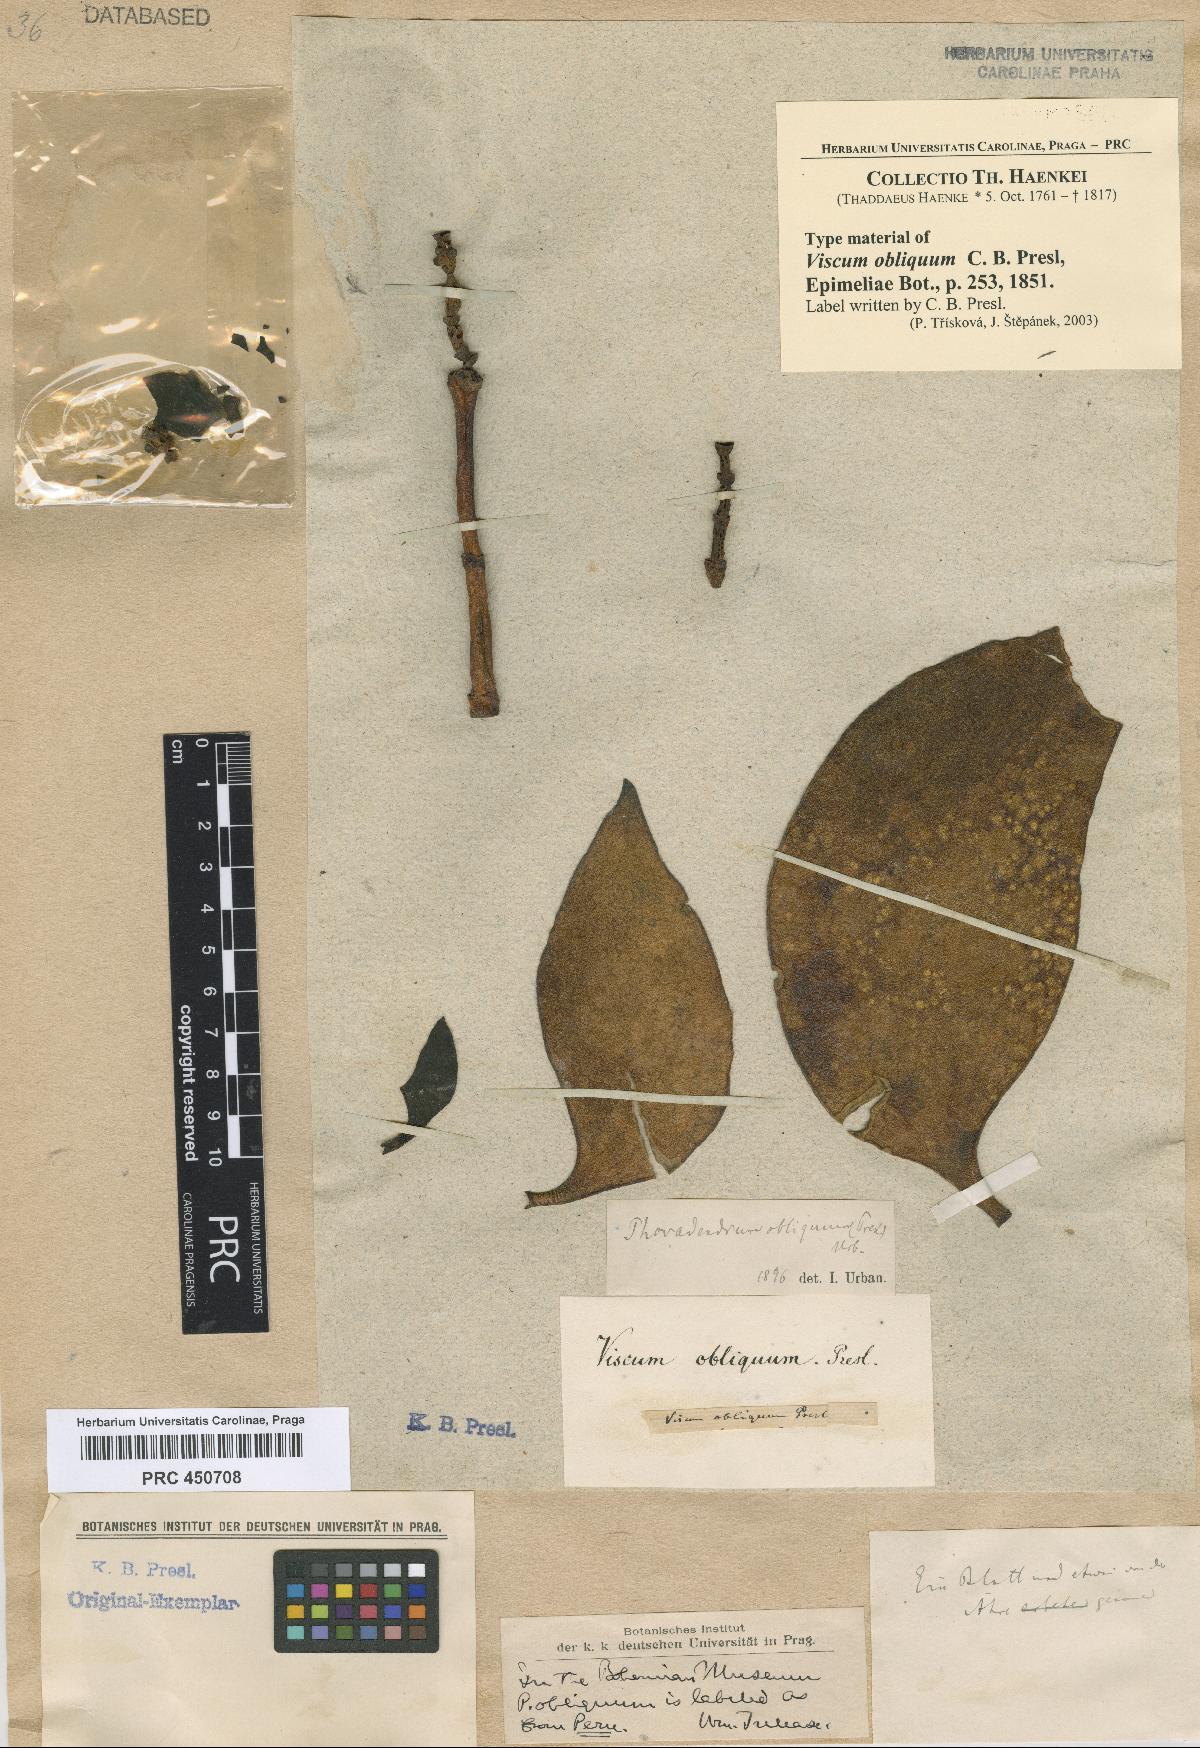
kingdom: Plantae
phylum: Tracheophyta
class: Magnoliopsida
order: Santalales
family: Viscaceae
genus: Dendrophthora
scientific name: Dendrophthora obliqua
